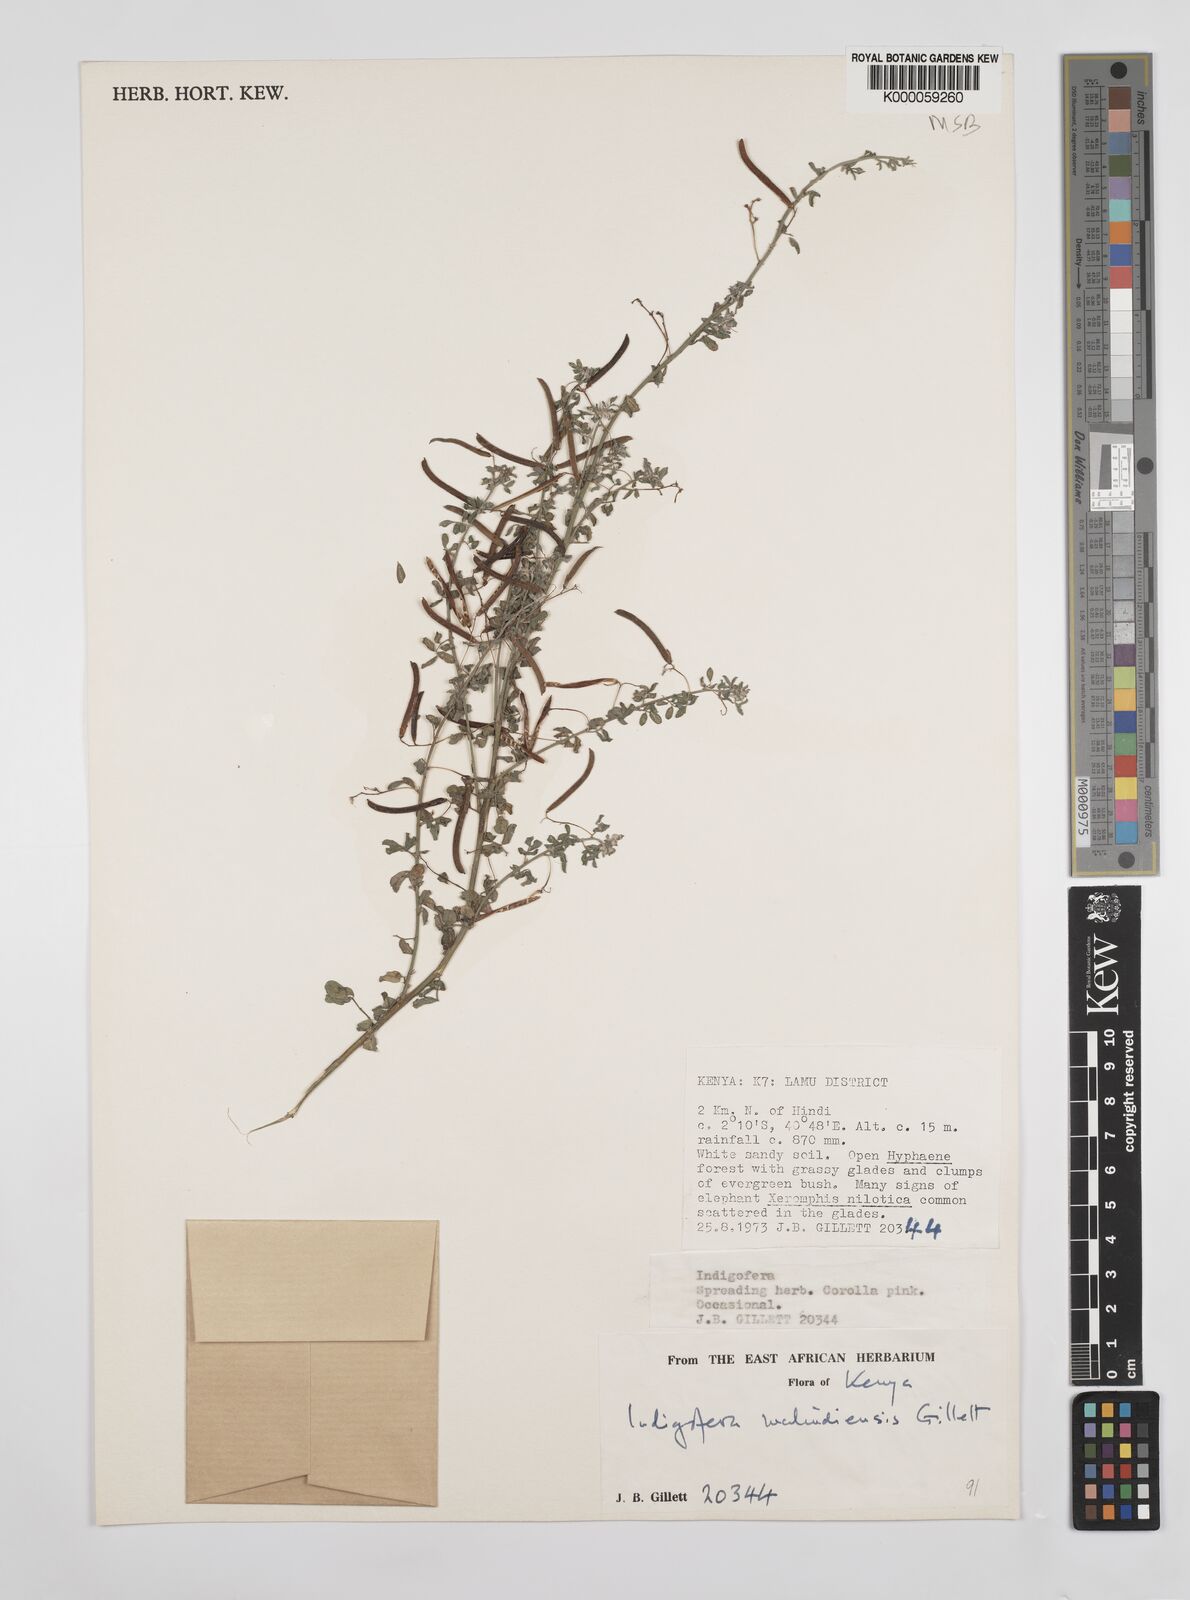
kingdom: Plantae
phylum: Tracheophyta
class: Magnoliopsida
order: Fabales
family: Fabaceae
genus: Indigofera
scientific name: Indigofera malindiensis
